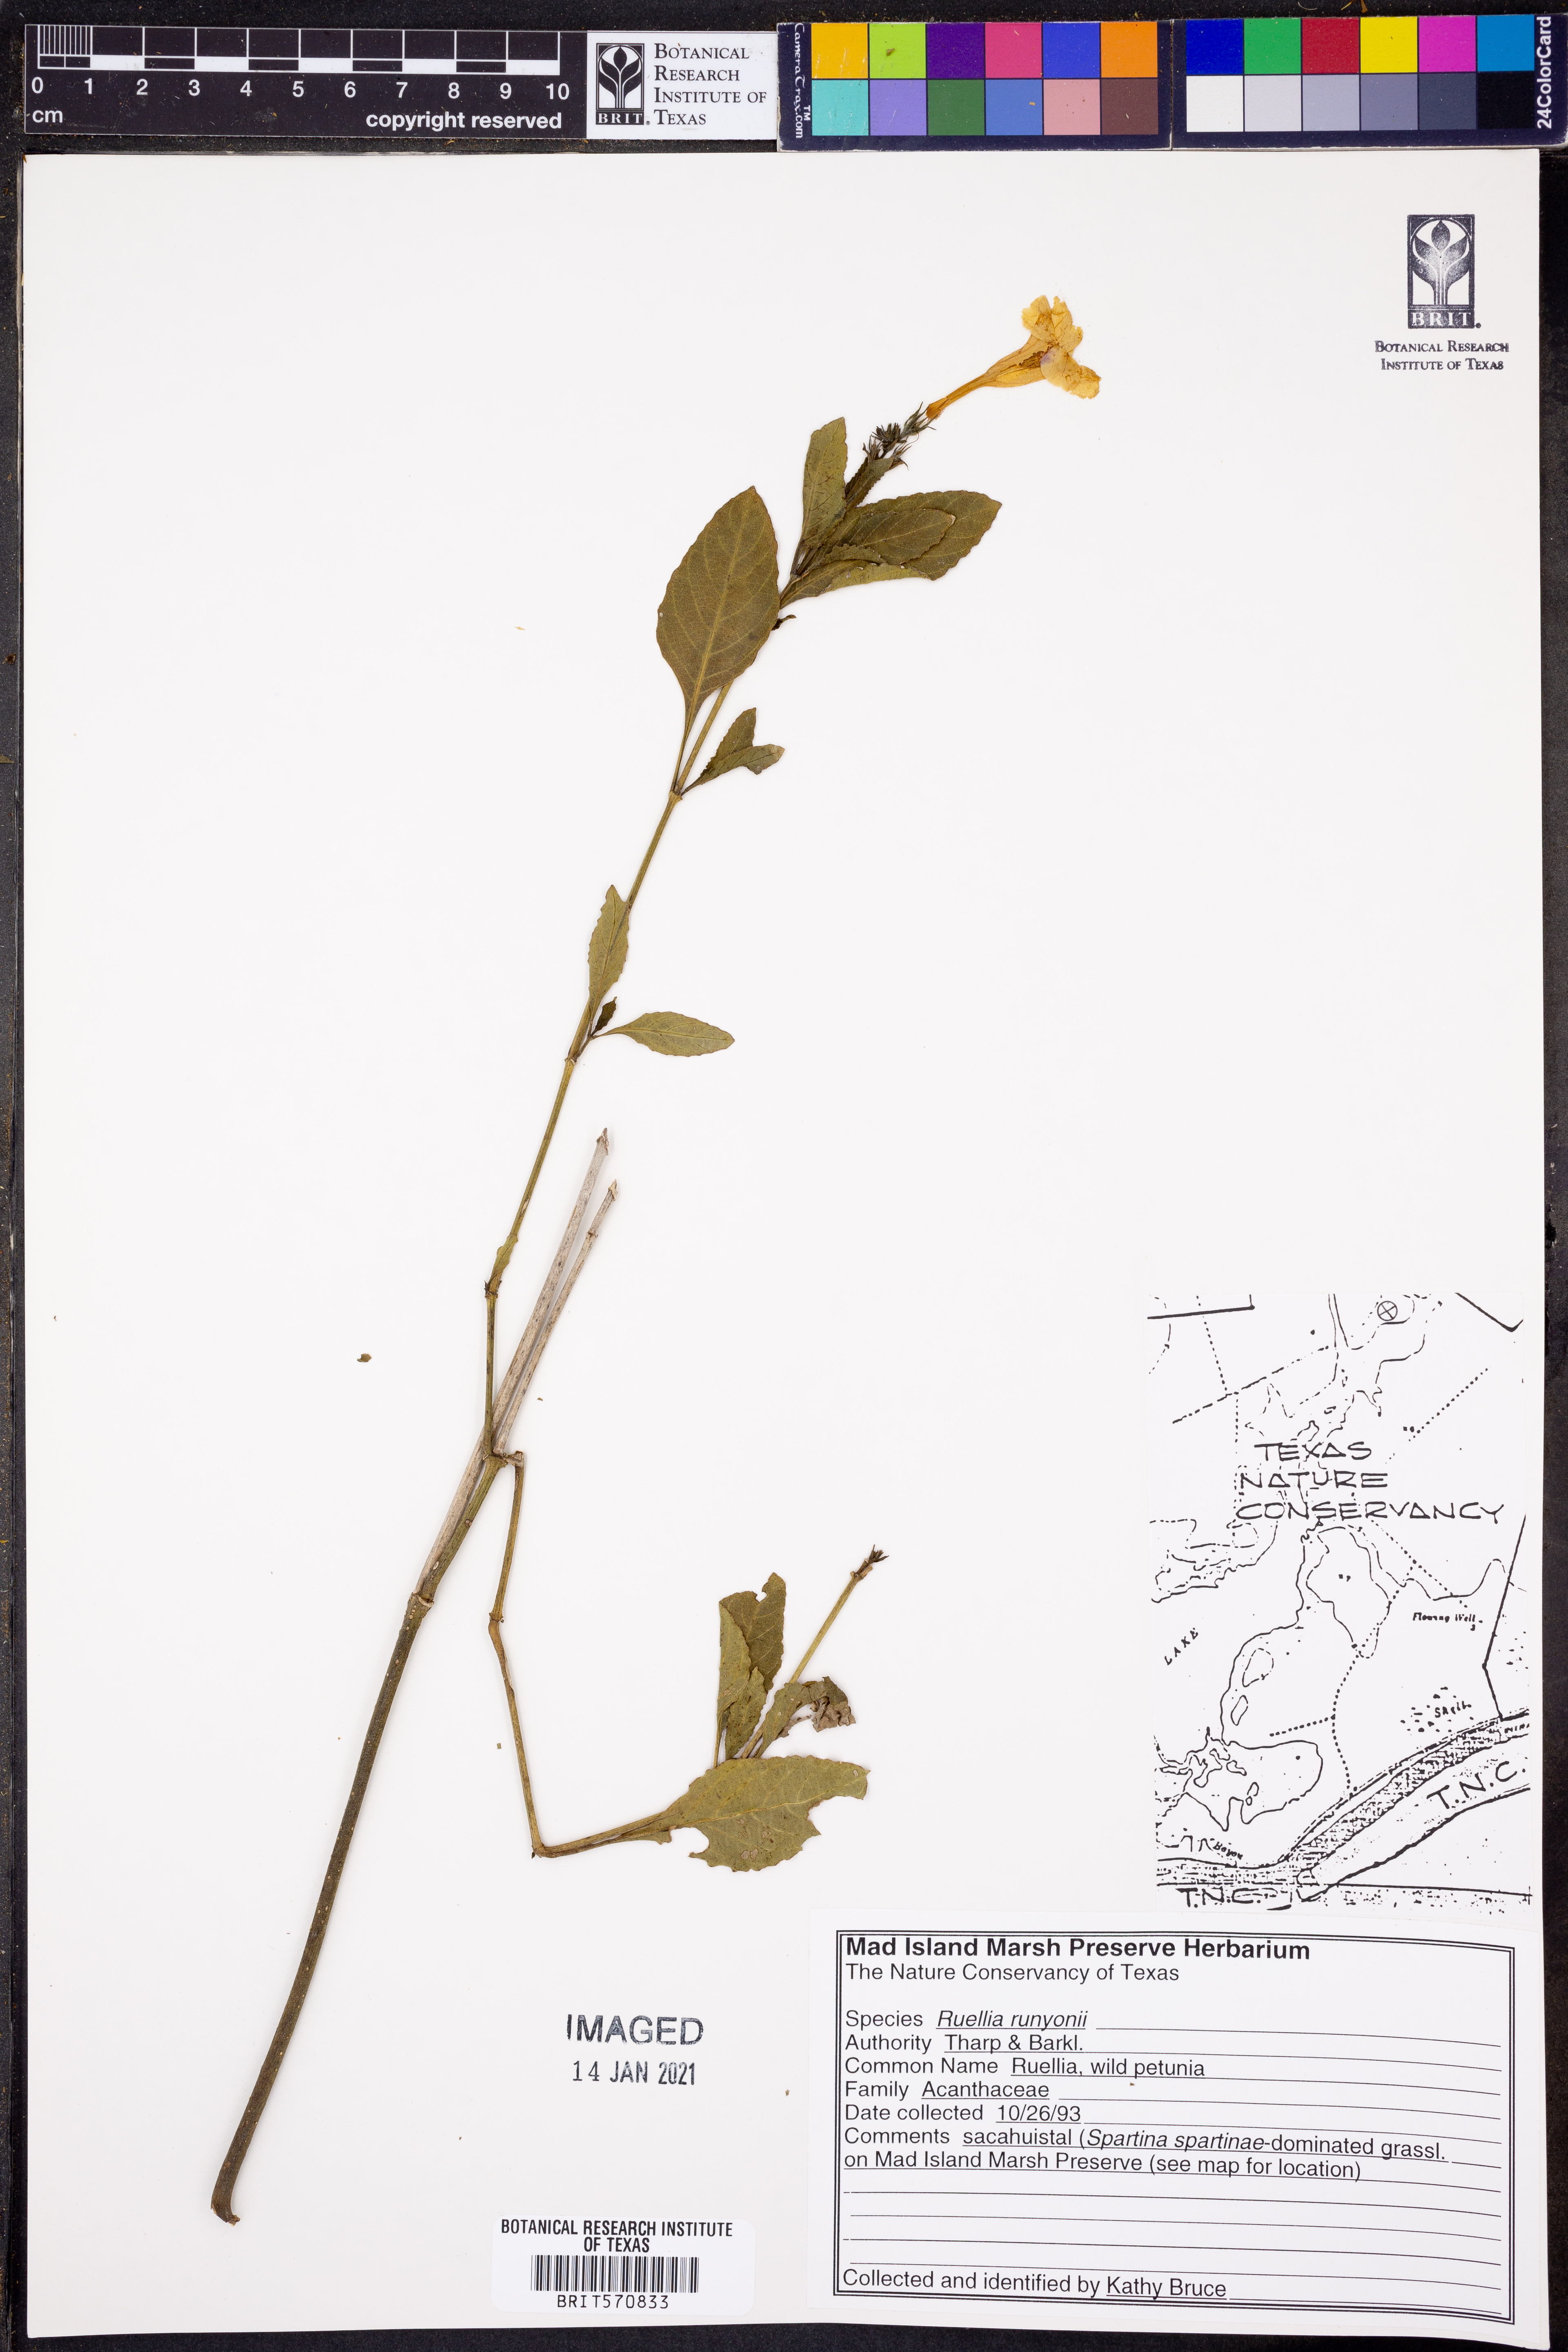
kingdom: Plantae
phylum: Tracheophyta
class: Magnoliopsida
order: Lamiales
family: Acanthaceae
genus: Ruellia
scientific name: Ruellia ciliatiflora
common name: Hairyflower wild petunia
